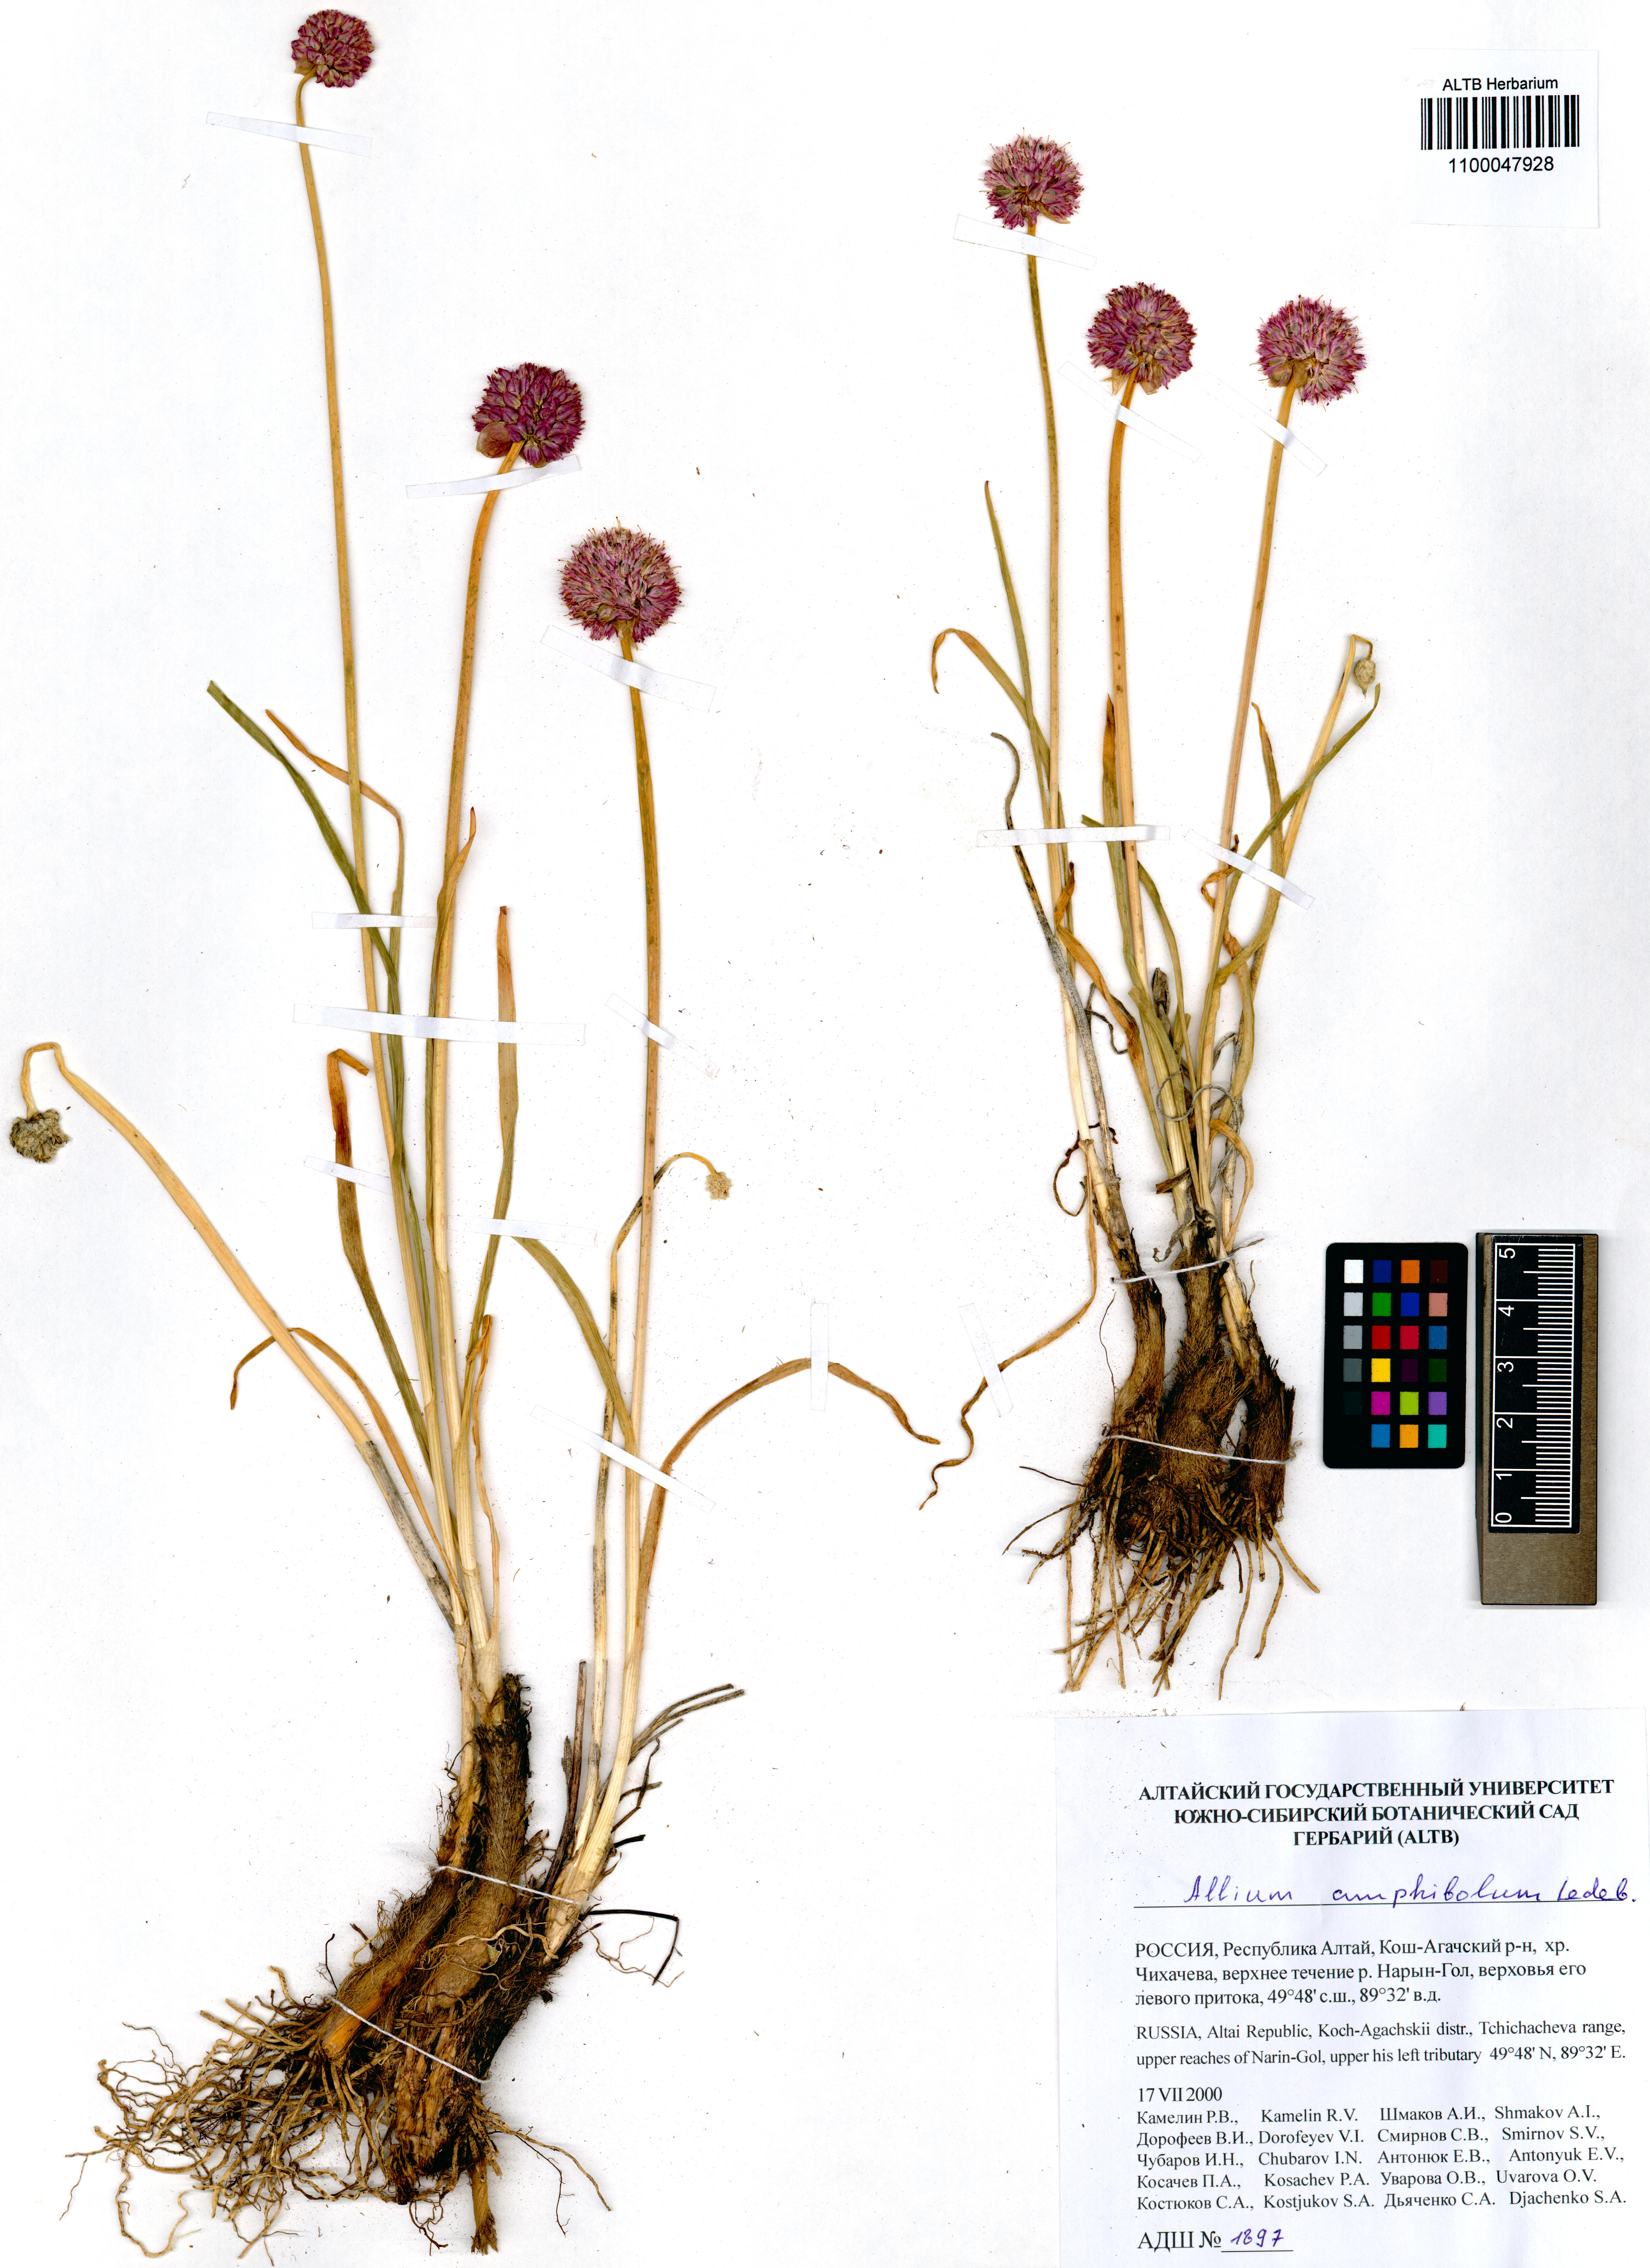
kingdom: Plantae
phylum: Tracheophyta
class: Liliopsida
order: Asparagales
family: Amaryllidaceae
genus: Allium
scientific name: Allium amphibolum
